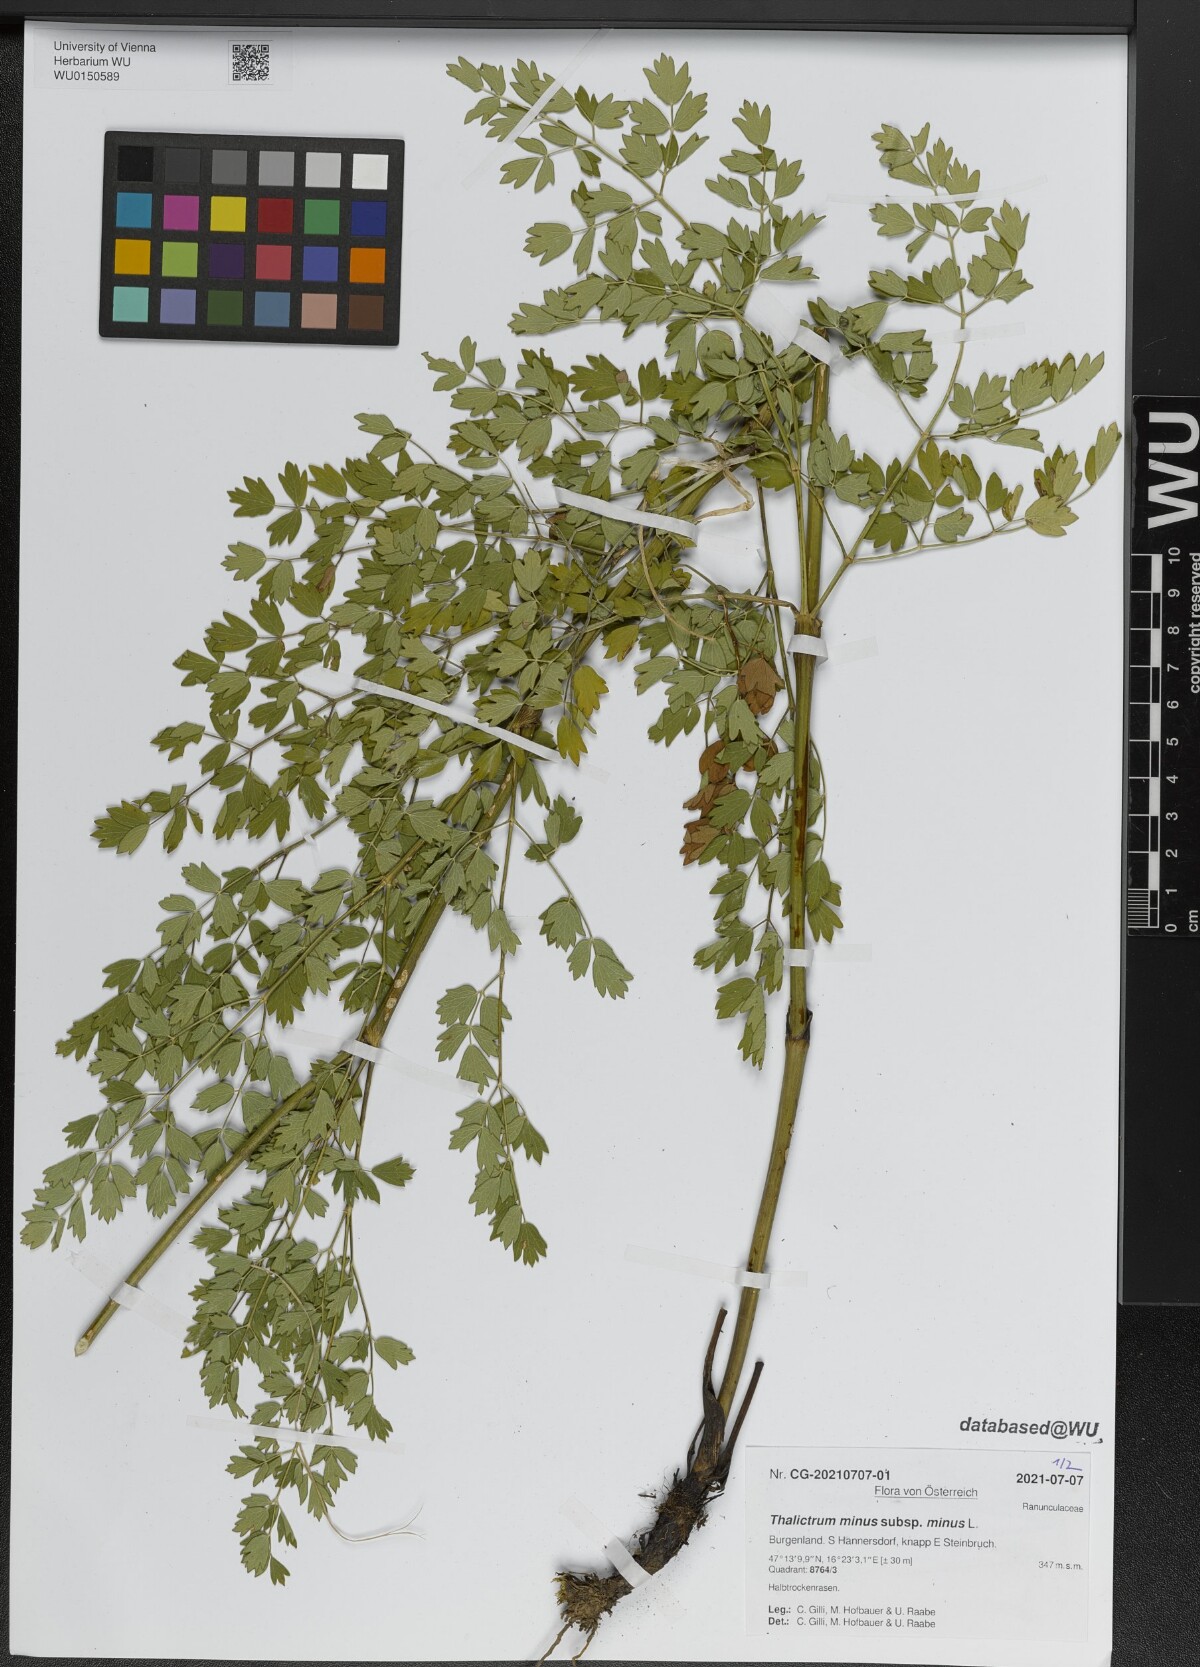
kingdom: Plantae
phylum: Tracheophyta
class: Magnoliopsida
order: Ranunculales
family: Ranunculaceae
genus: Thalictrum
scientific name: Thalictrum minus
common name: Lesser meadow-rue
